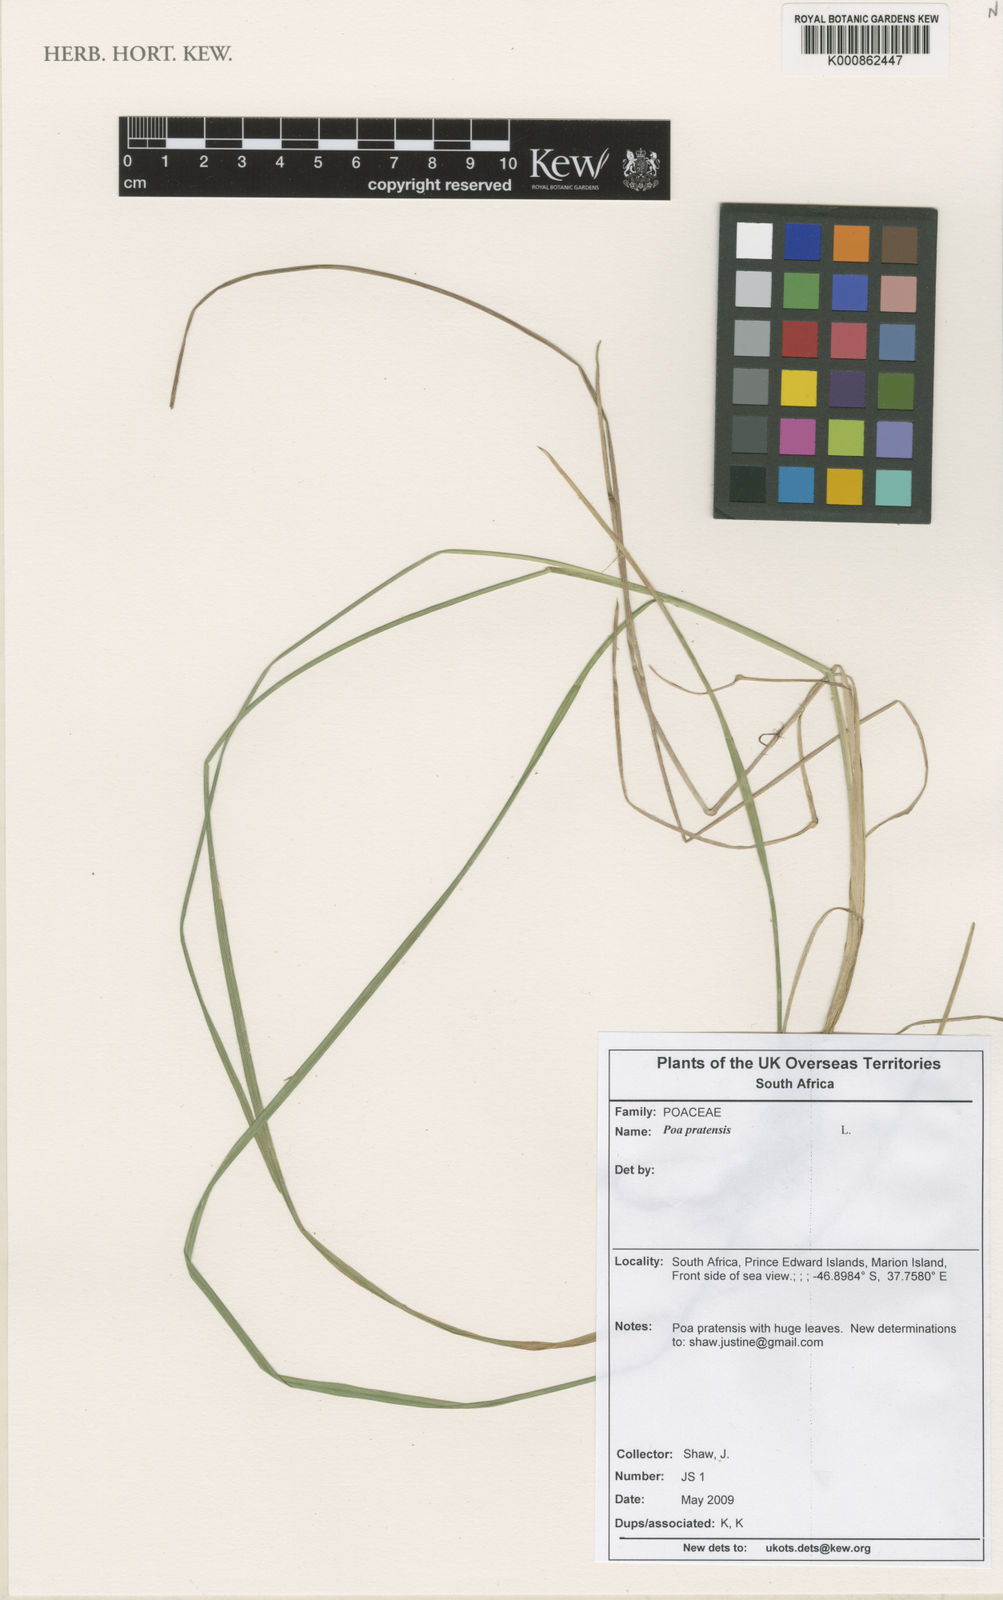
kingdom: Plantae
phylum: Tracheophyta
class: Liliopsida
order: Poales
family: Poaceae
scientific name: Poaceae
